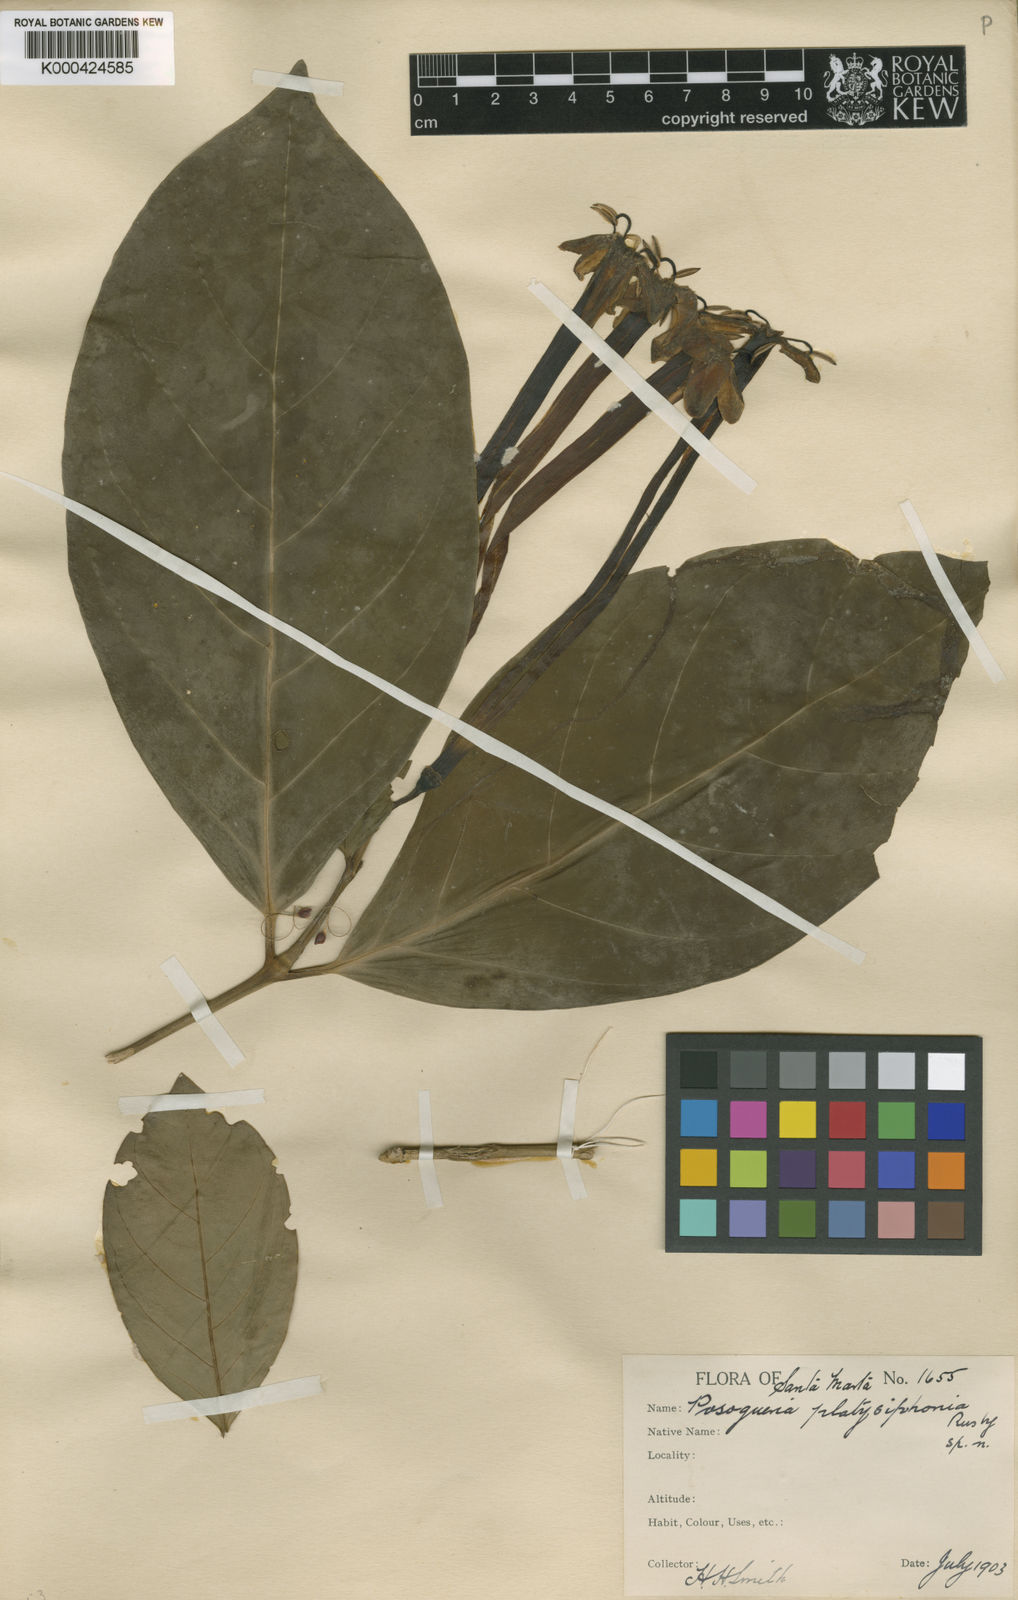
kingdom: Plantae
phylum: Tracheophyta
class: Magnoliopsida
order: Gentianales
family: Rubiaceae
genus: Posoqueria
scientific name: Posoqueria platysiphonia
